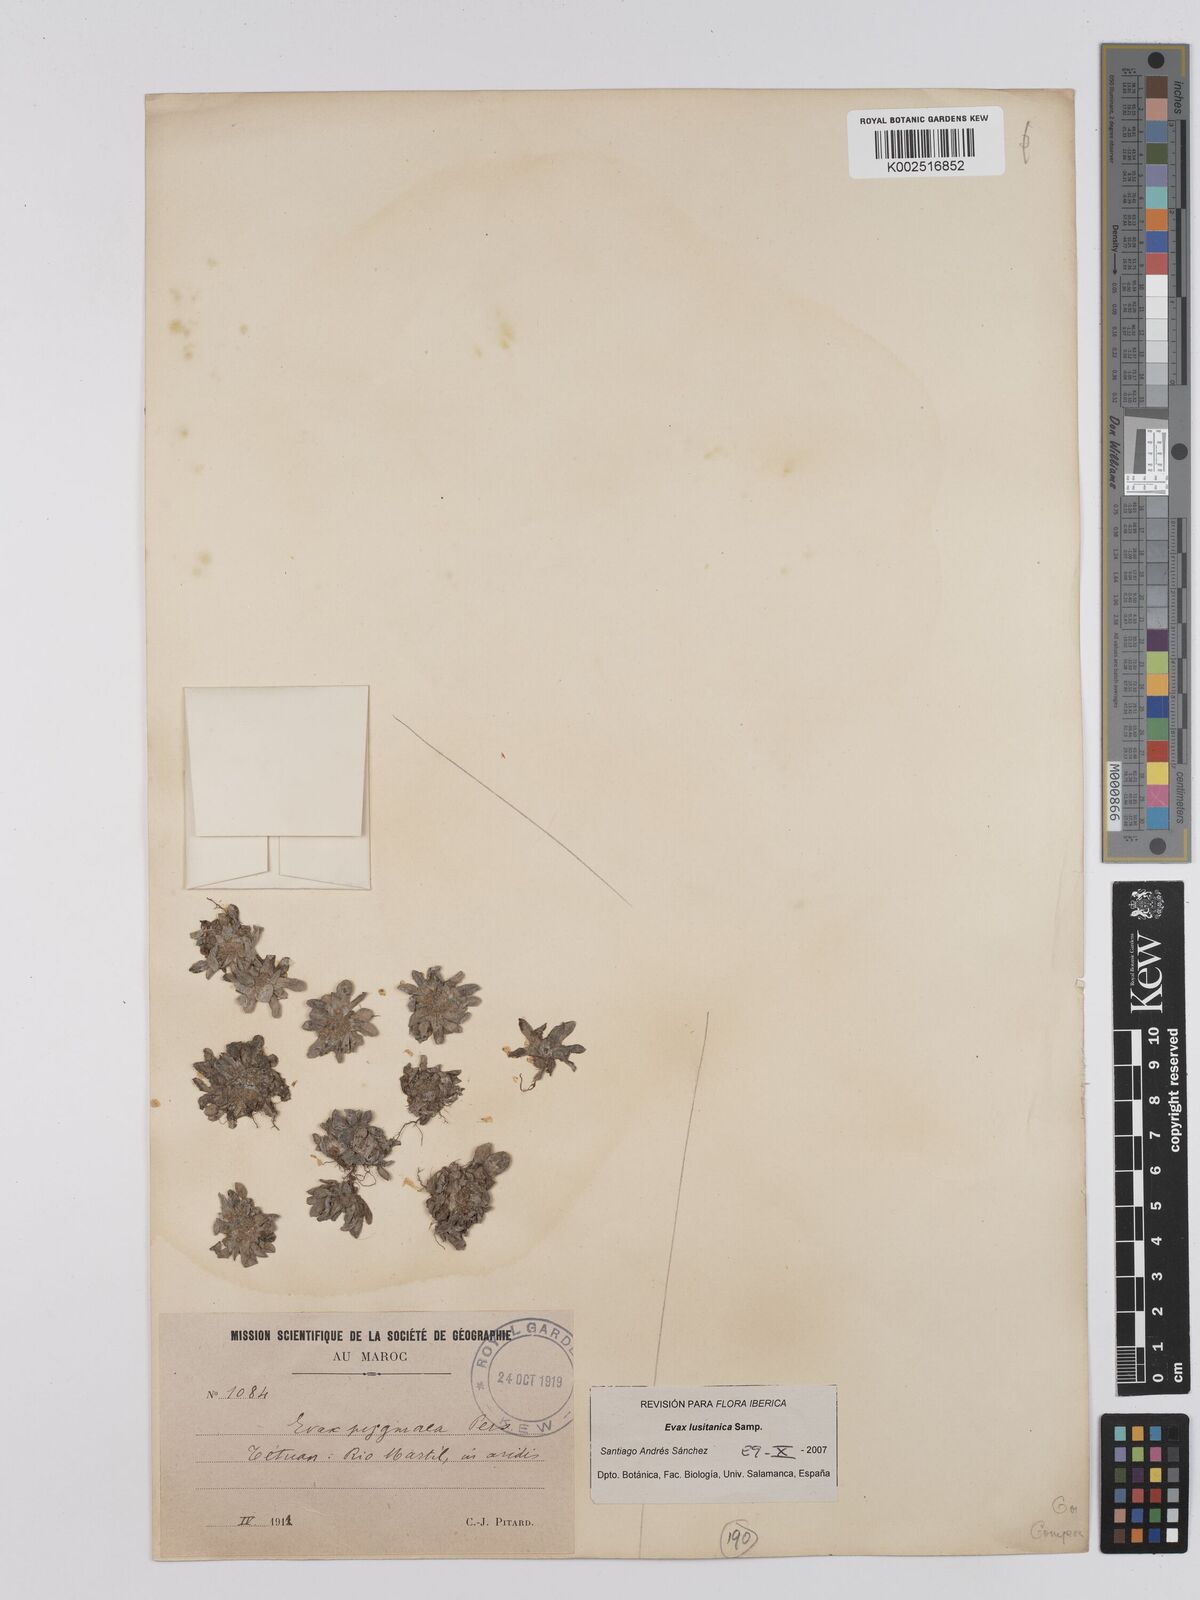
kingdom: Plantae
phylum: Tracheophyta
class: Magnoliopsida
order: Asterales
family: Asteraceae
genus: Filago
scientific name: Filago pygmaea
